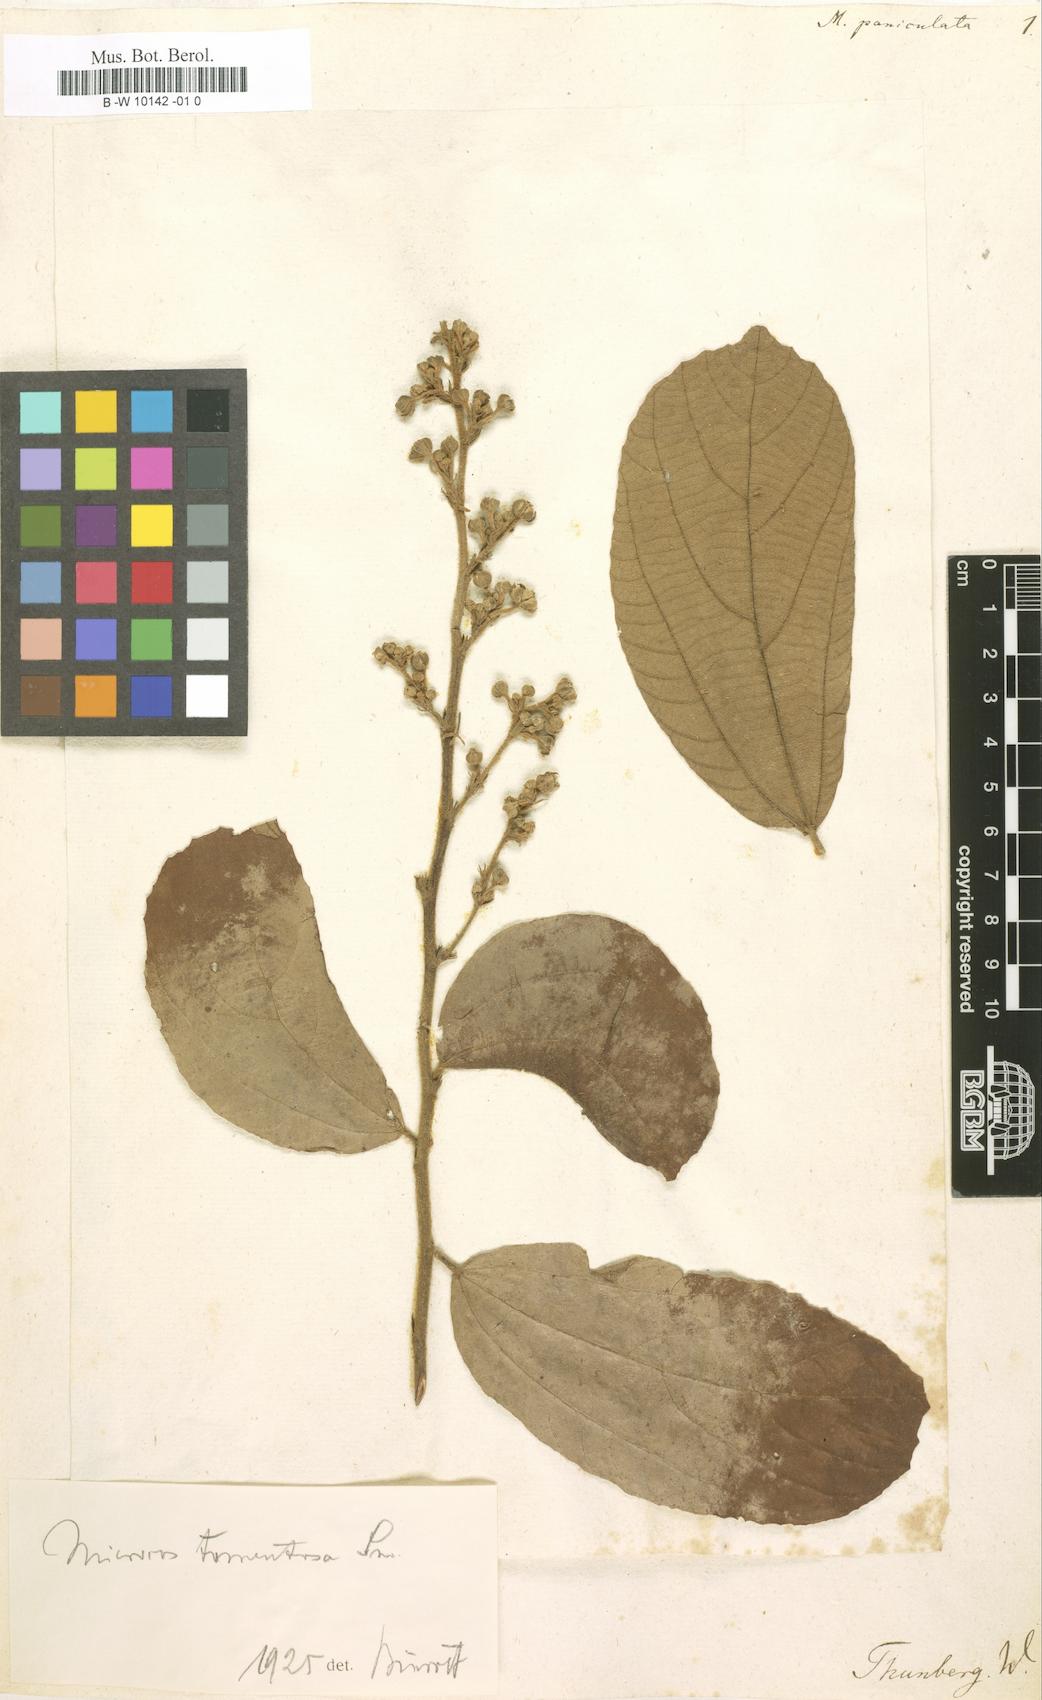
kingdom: Plantae
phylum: Tracheophyta
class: Magnoliopsida
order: Malvales
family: Malvaceae
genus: Microcos
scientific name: Microcos paniculata
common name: Microcos
